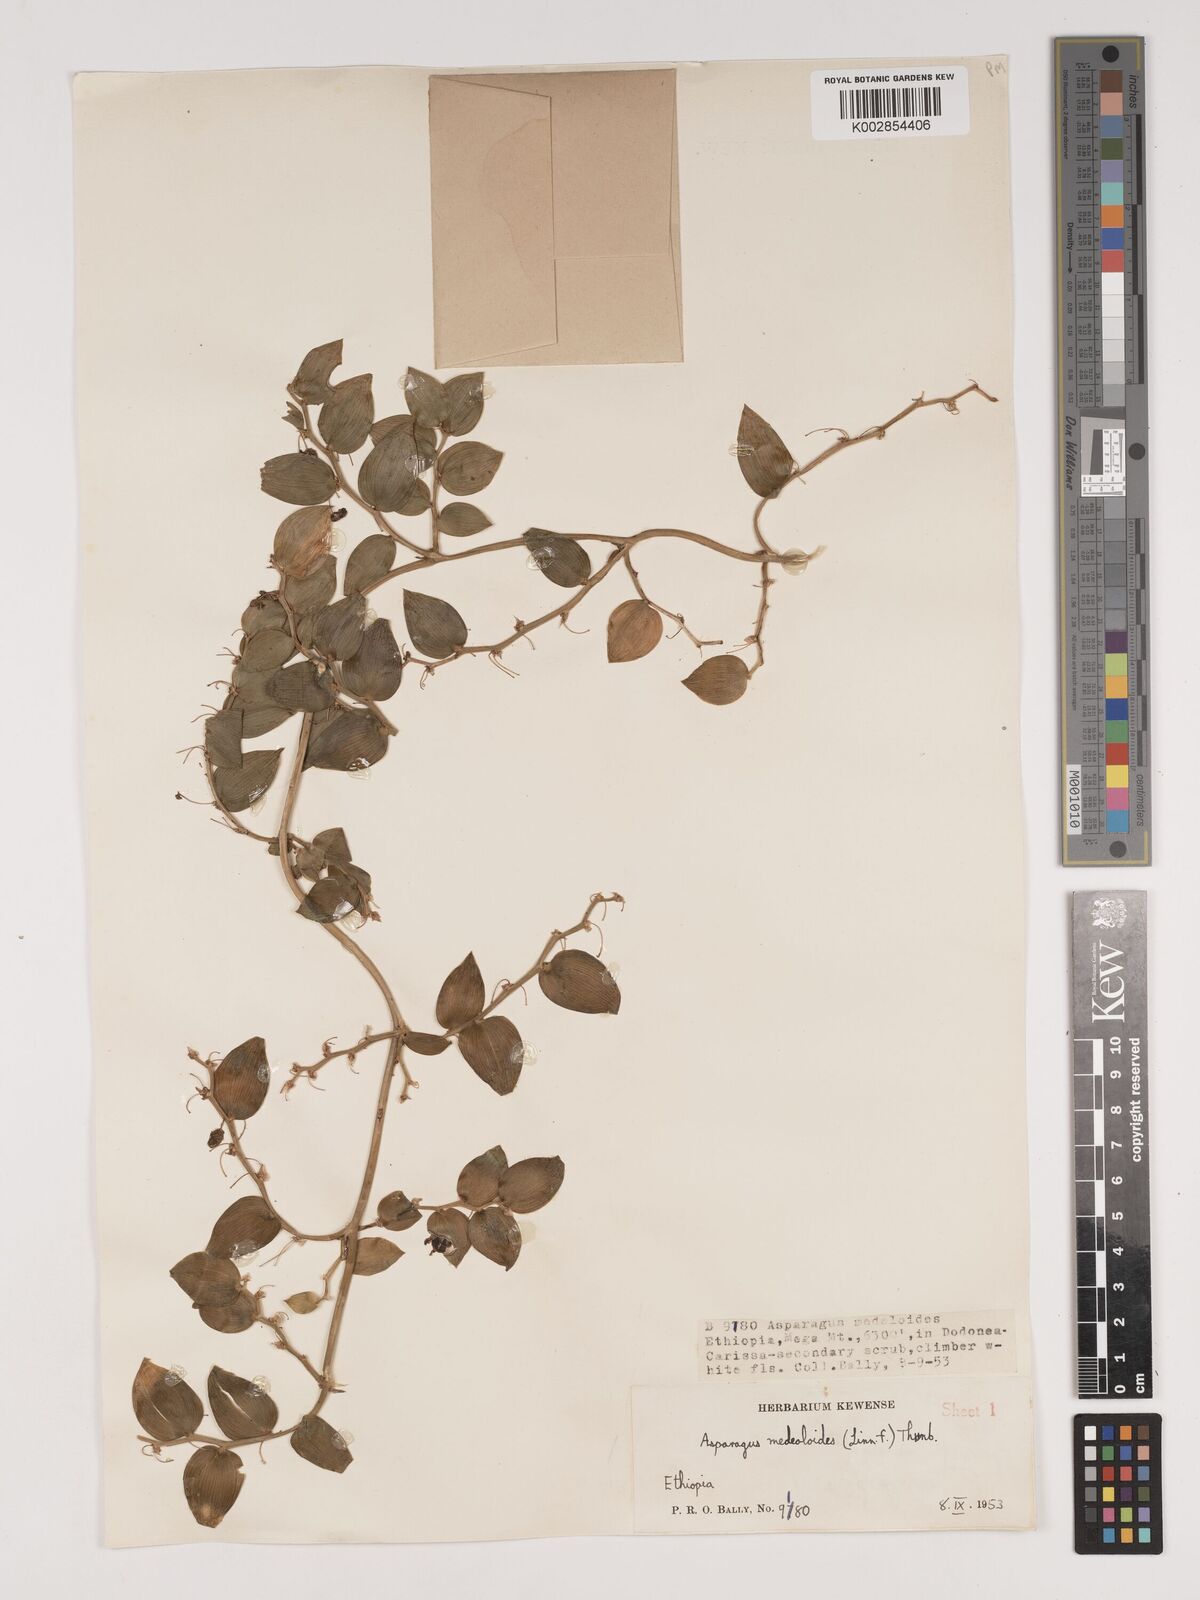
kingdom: Plantae
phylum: Tracheophyta
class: Liliopsida
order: Asparagales
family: Asparagaceae
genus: Asparagus
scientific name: Asparagus asparagoides
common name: African asparagus fern
